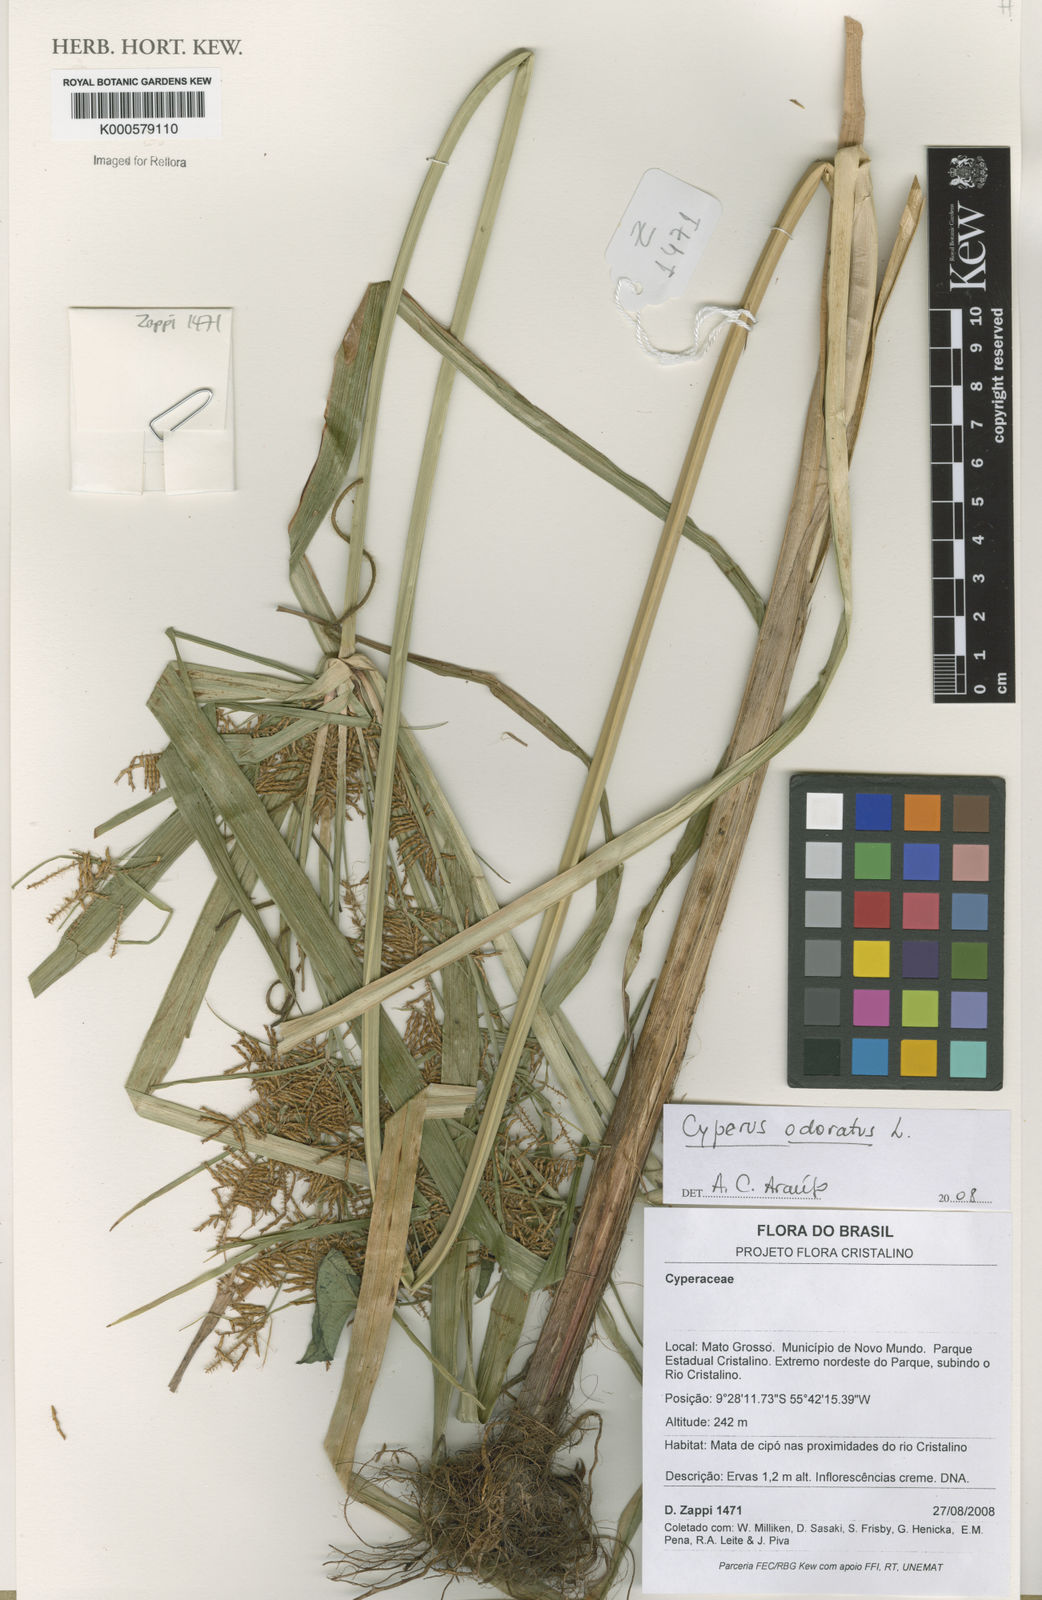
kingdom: Plantae
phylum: Tracheophyta
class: Liliopsida
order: Poales
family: Cyperaceae
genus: Cyperus
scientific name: Cyperus odoratus
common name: Fragrant flatsedge
